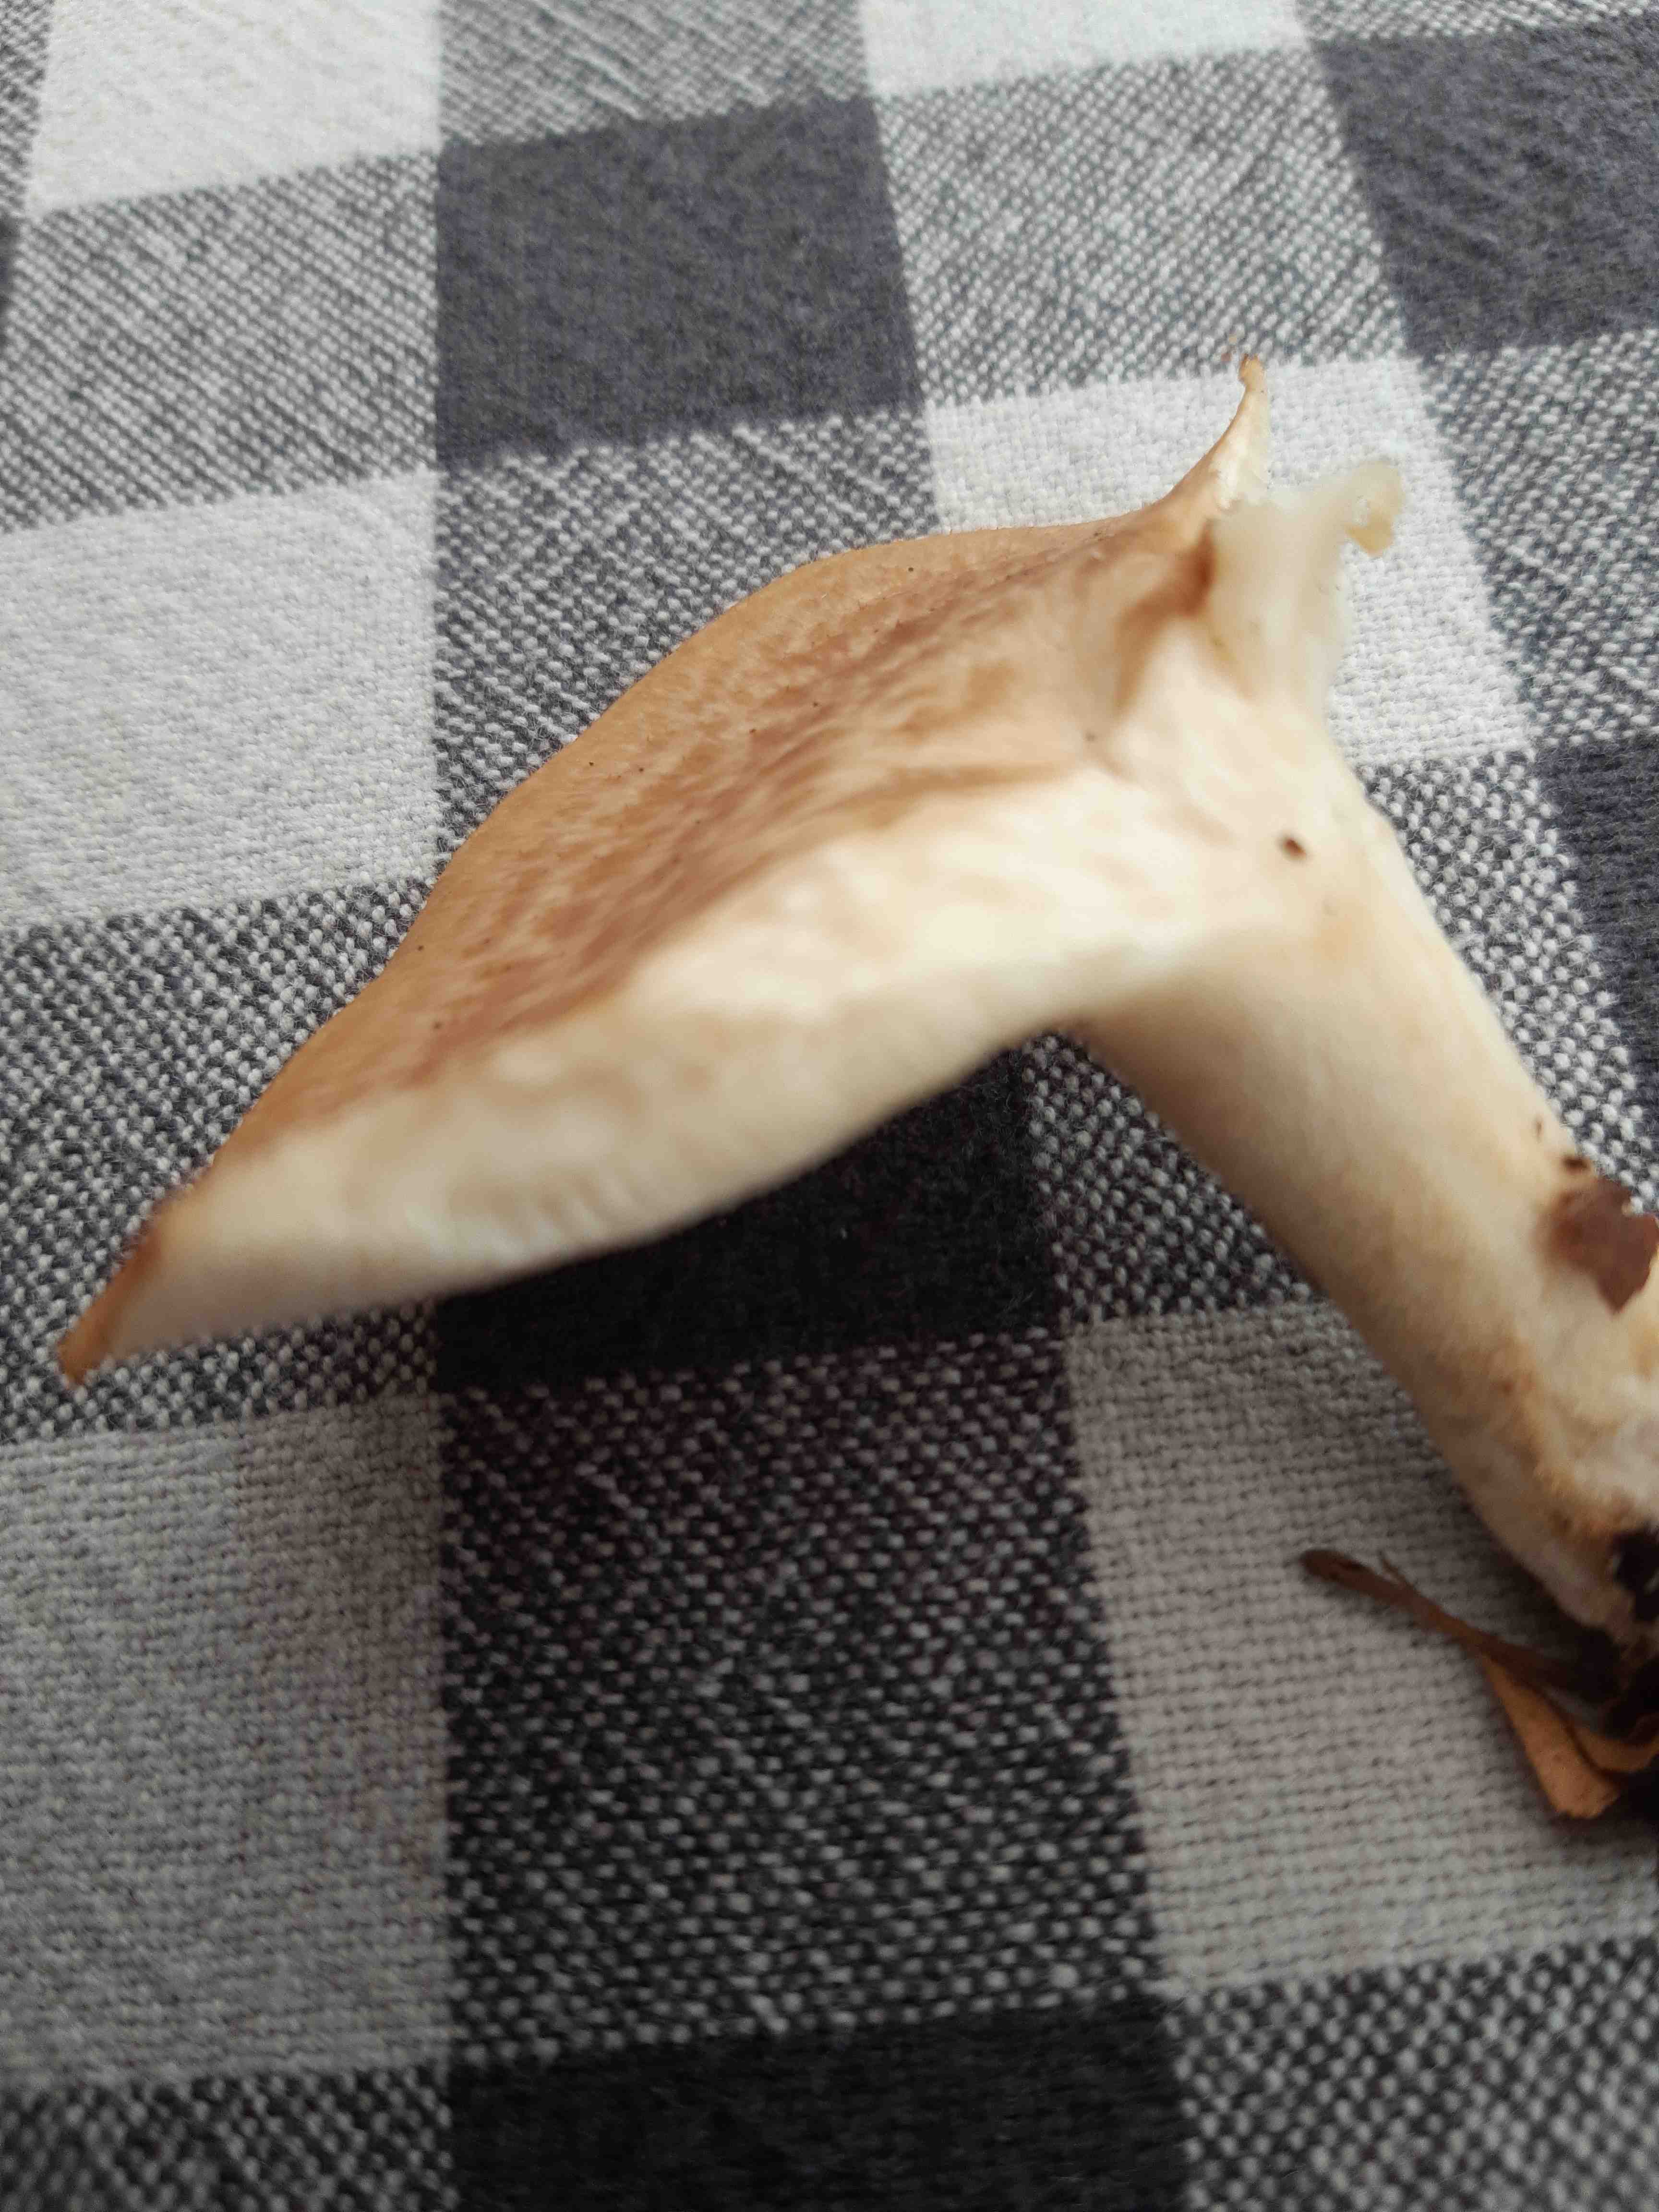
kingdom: Fungi
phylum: Basidiomycota
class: Agaricomycetes
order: Polyporales
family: Polyporaceae
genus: Lentinus
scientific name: Lentinus brumalis
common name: vinter-stilkporesvamp
